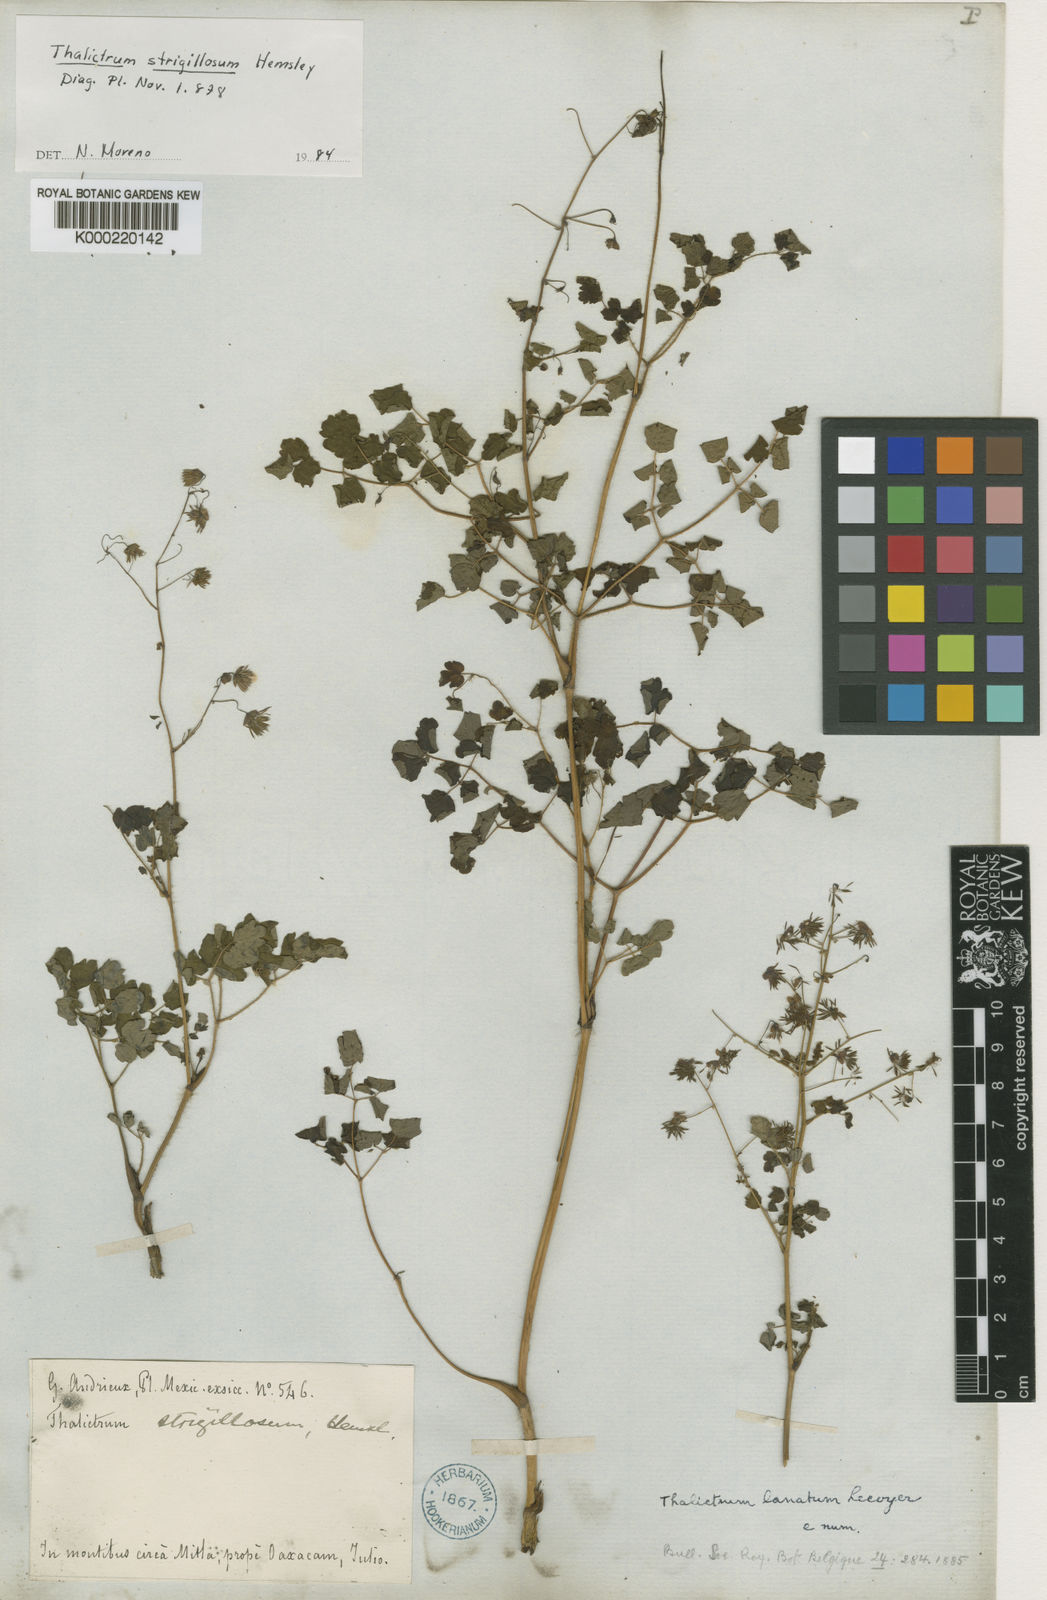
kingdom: Plantae
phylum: Tracheophyta
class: Magnoliopsida
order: Ranunculales
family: Ranunculaceae
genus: Thalictrum
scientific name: Thalictrum lanatum
